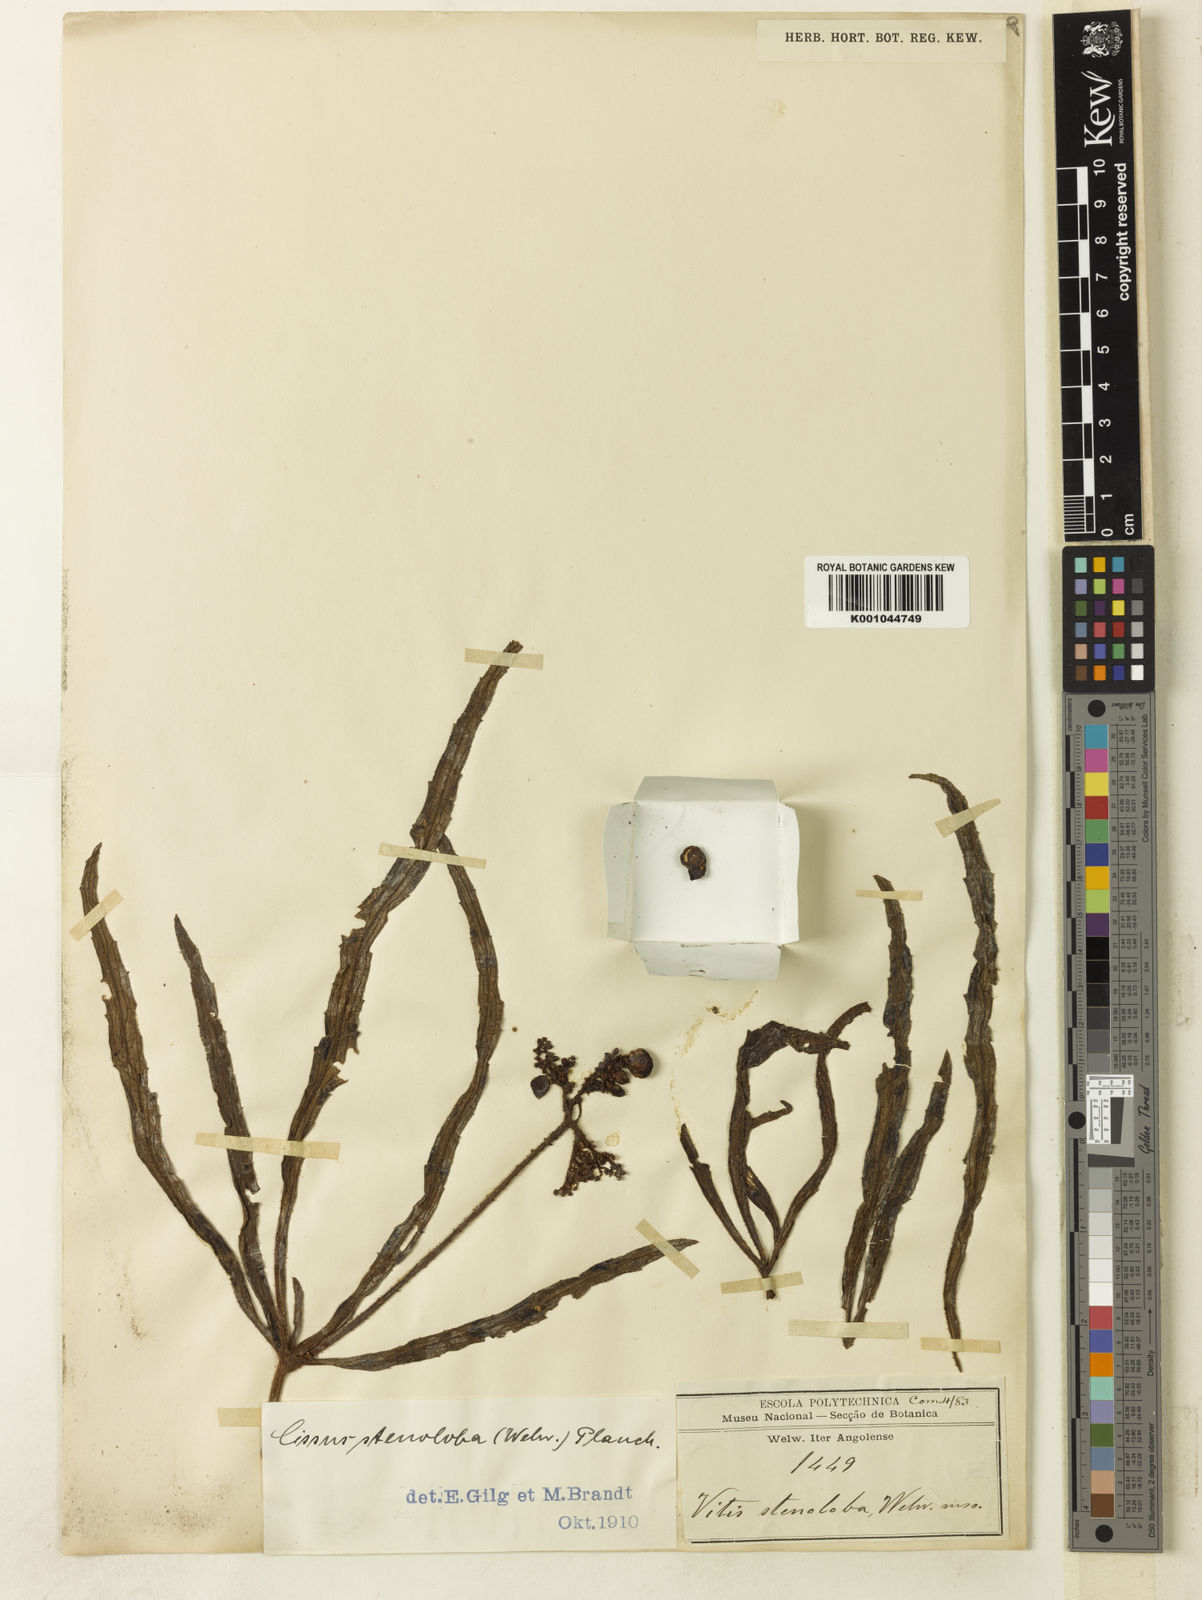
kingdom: Plantae
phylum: Tracheophyta
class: Magnoliopsida
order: Vitales
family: Vitaceae
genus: Cyphostemma
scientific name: Cyphostemma
